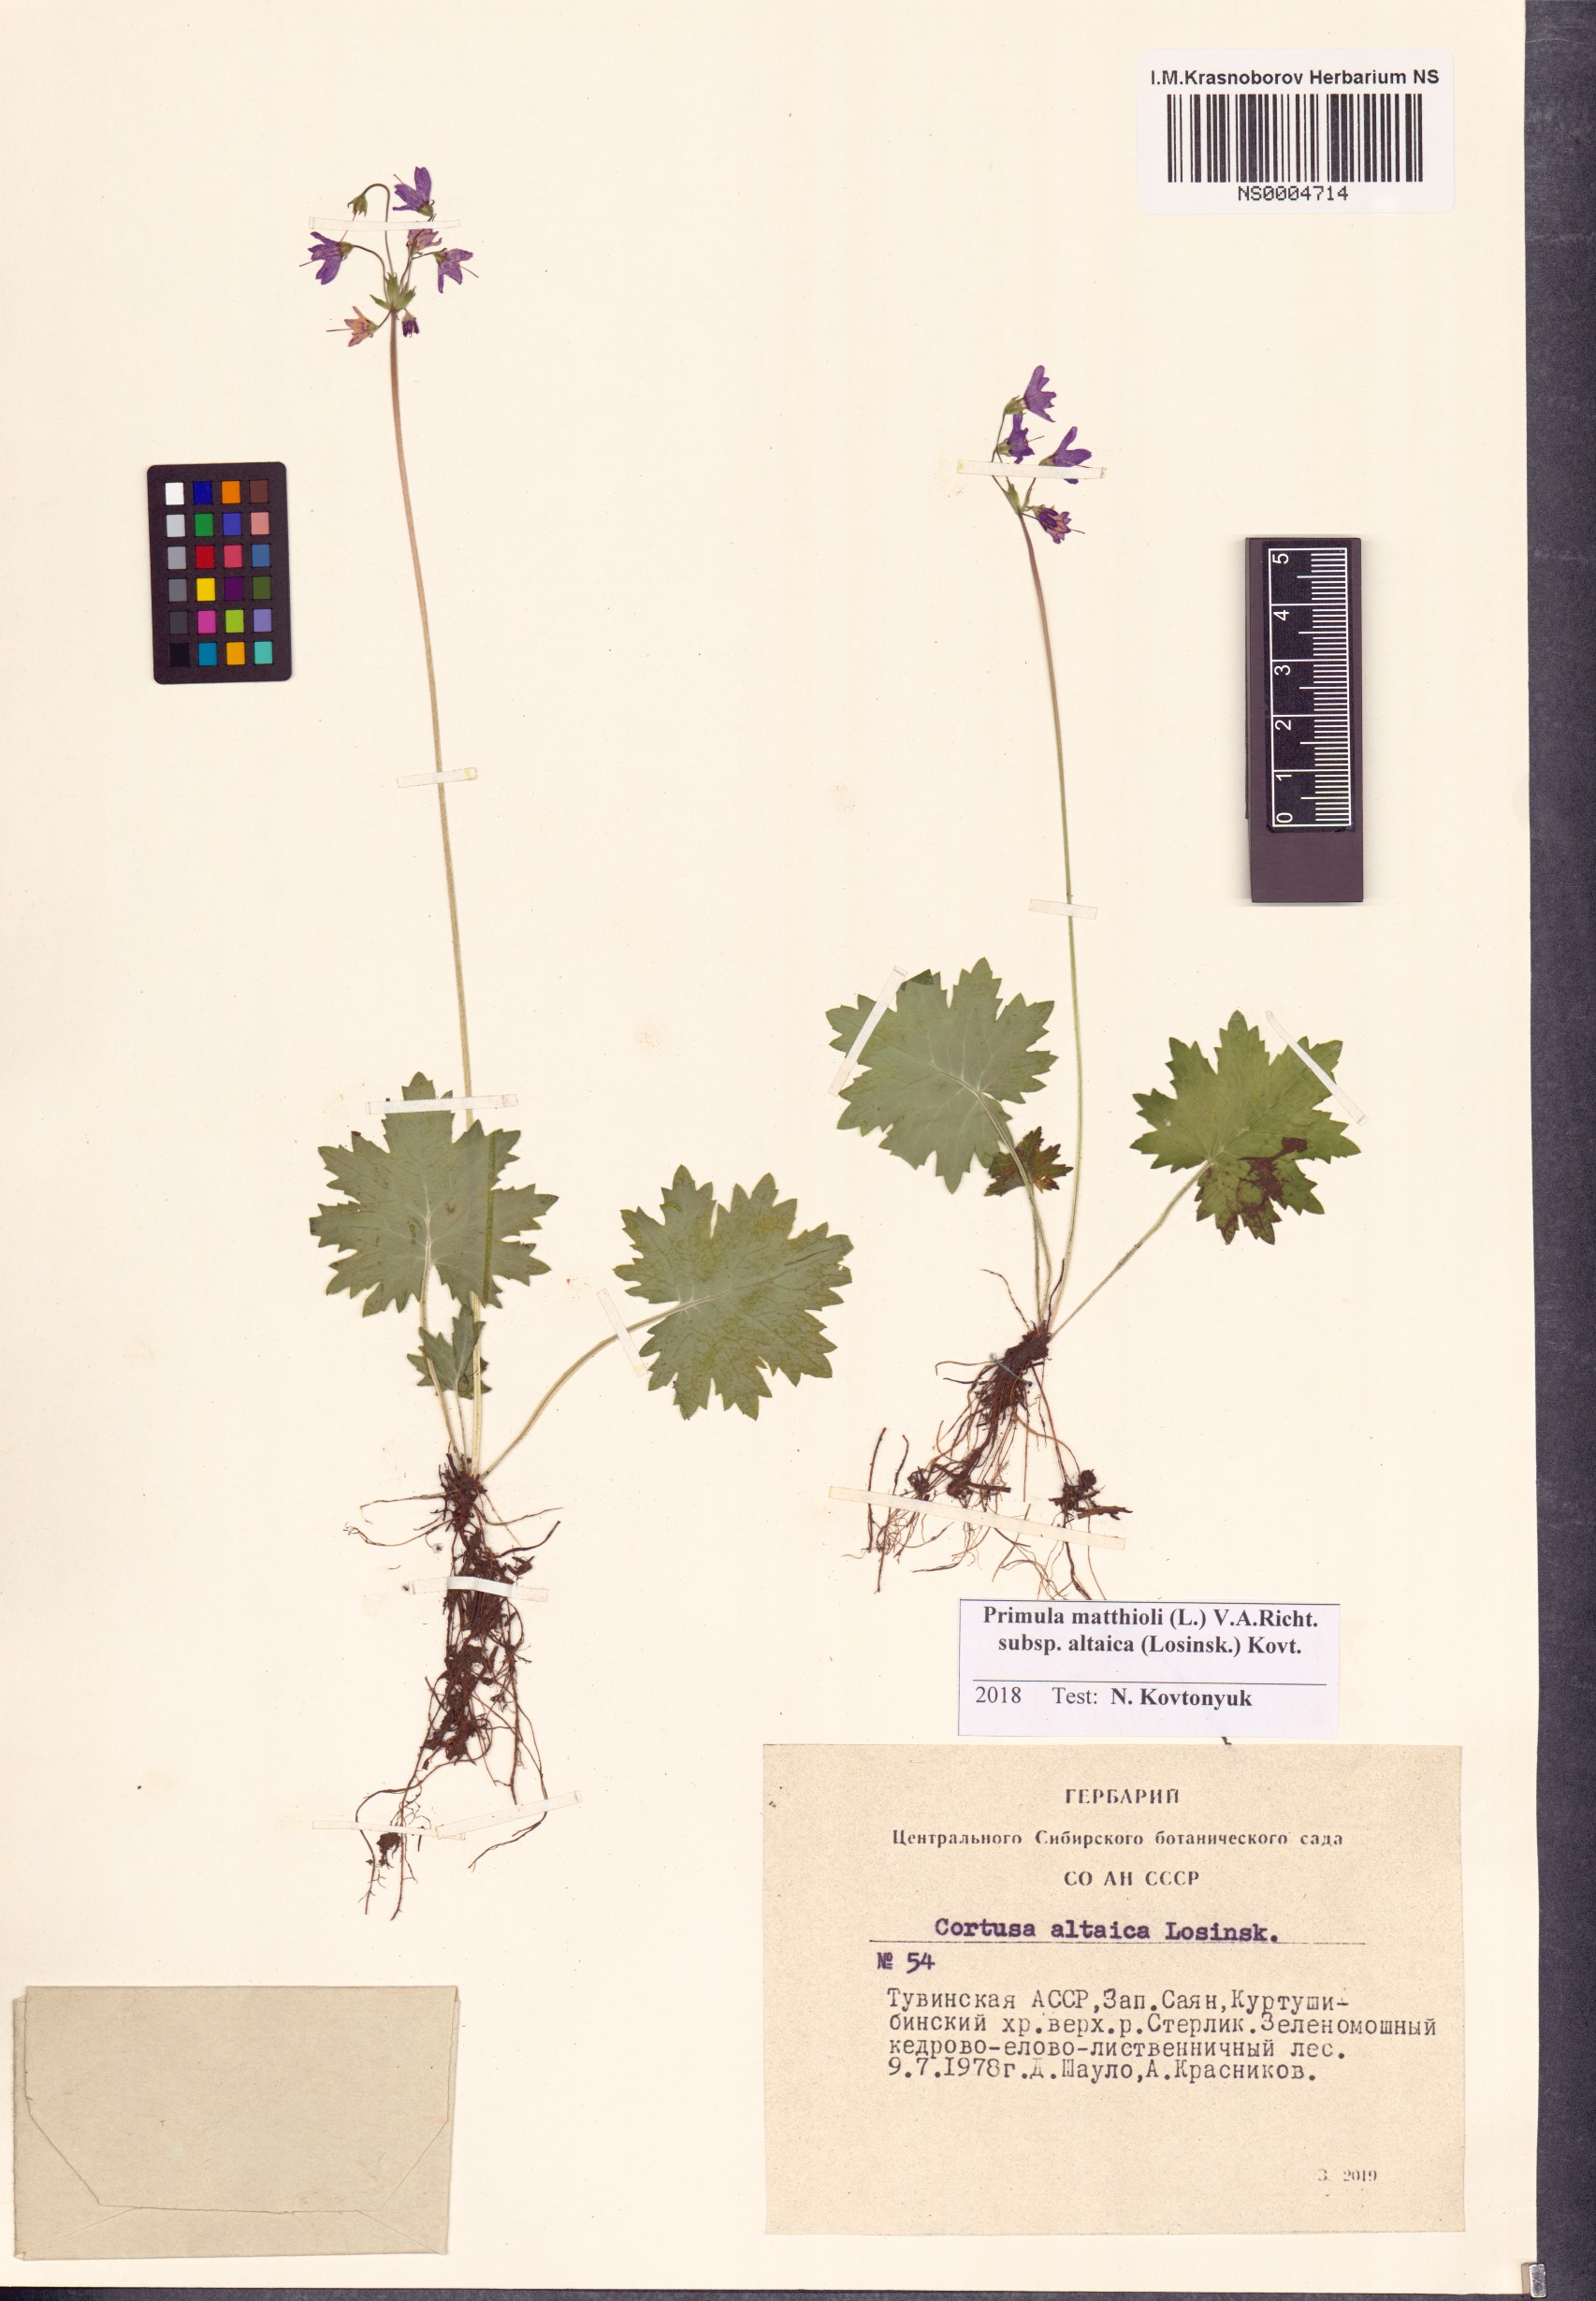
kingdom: Plantae
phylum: Tracheophyta
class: Magnoliopsida
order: Ericales
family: Primulaceae
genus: Primula
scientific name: Primula matthioli
